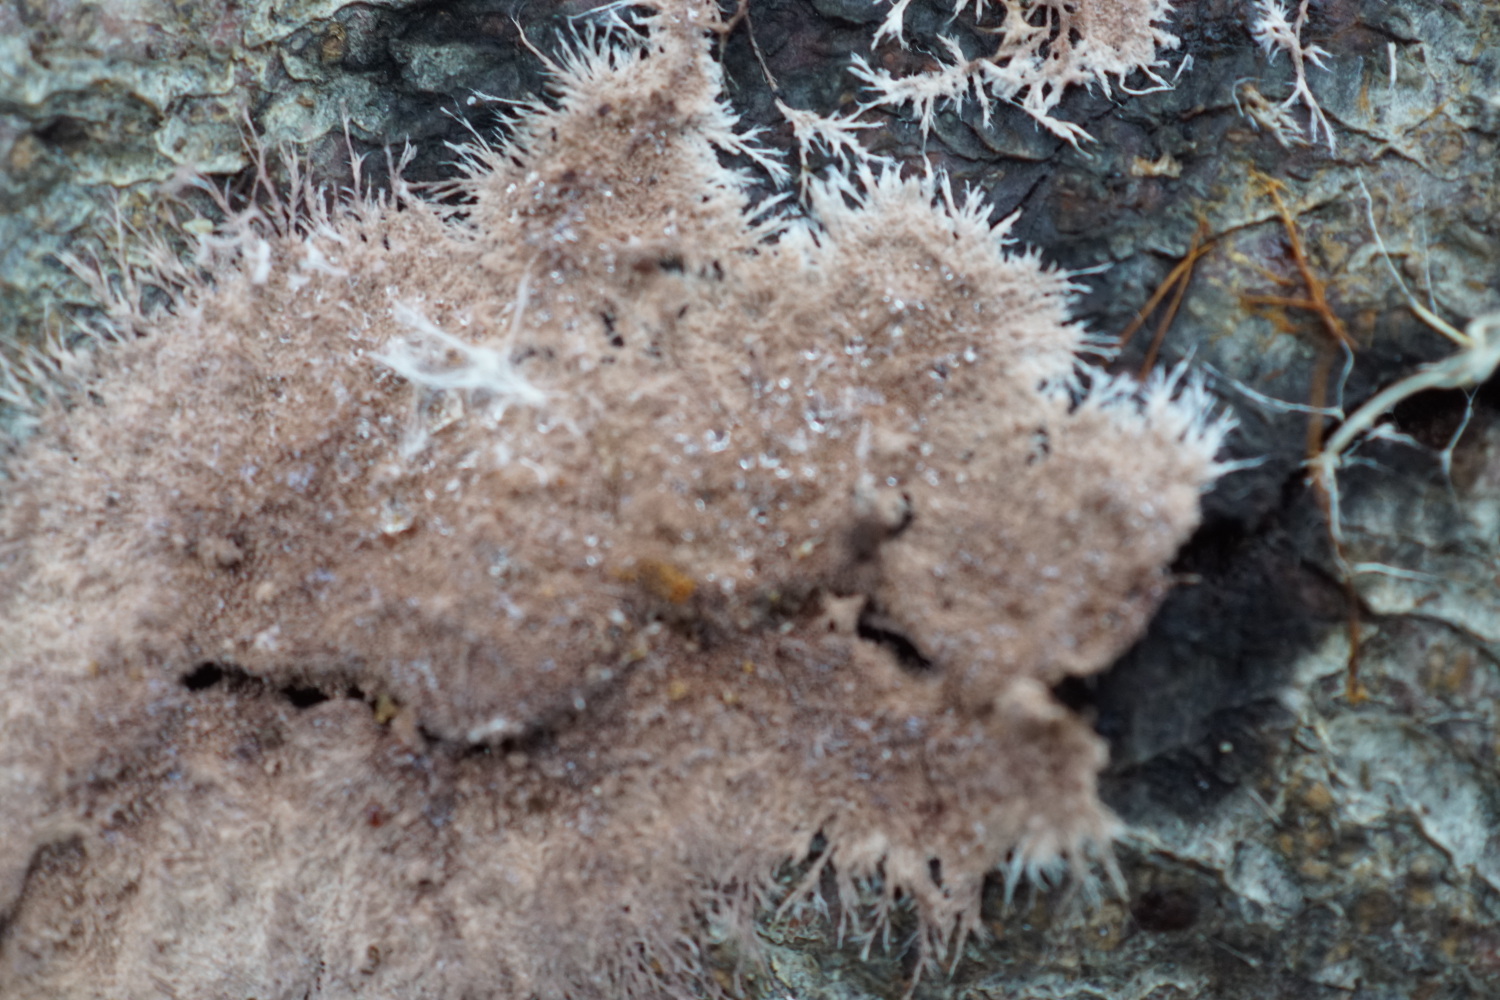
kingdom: Fungi
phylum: Basidiomycota
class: Agaricomycetes
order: Polyporales
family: Steccherinaceae
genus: Steccherinum
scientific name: Steccherinum fimbriatum
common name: trådet skønpig
